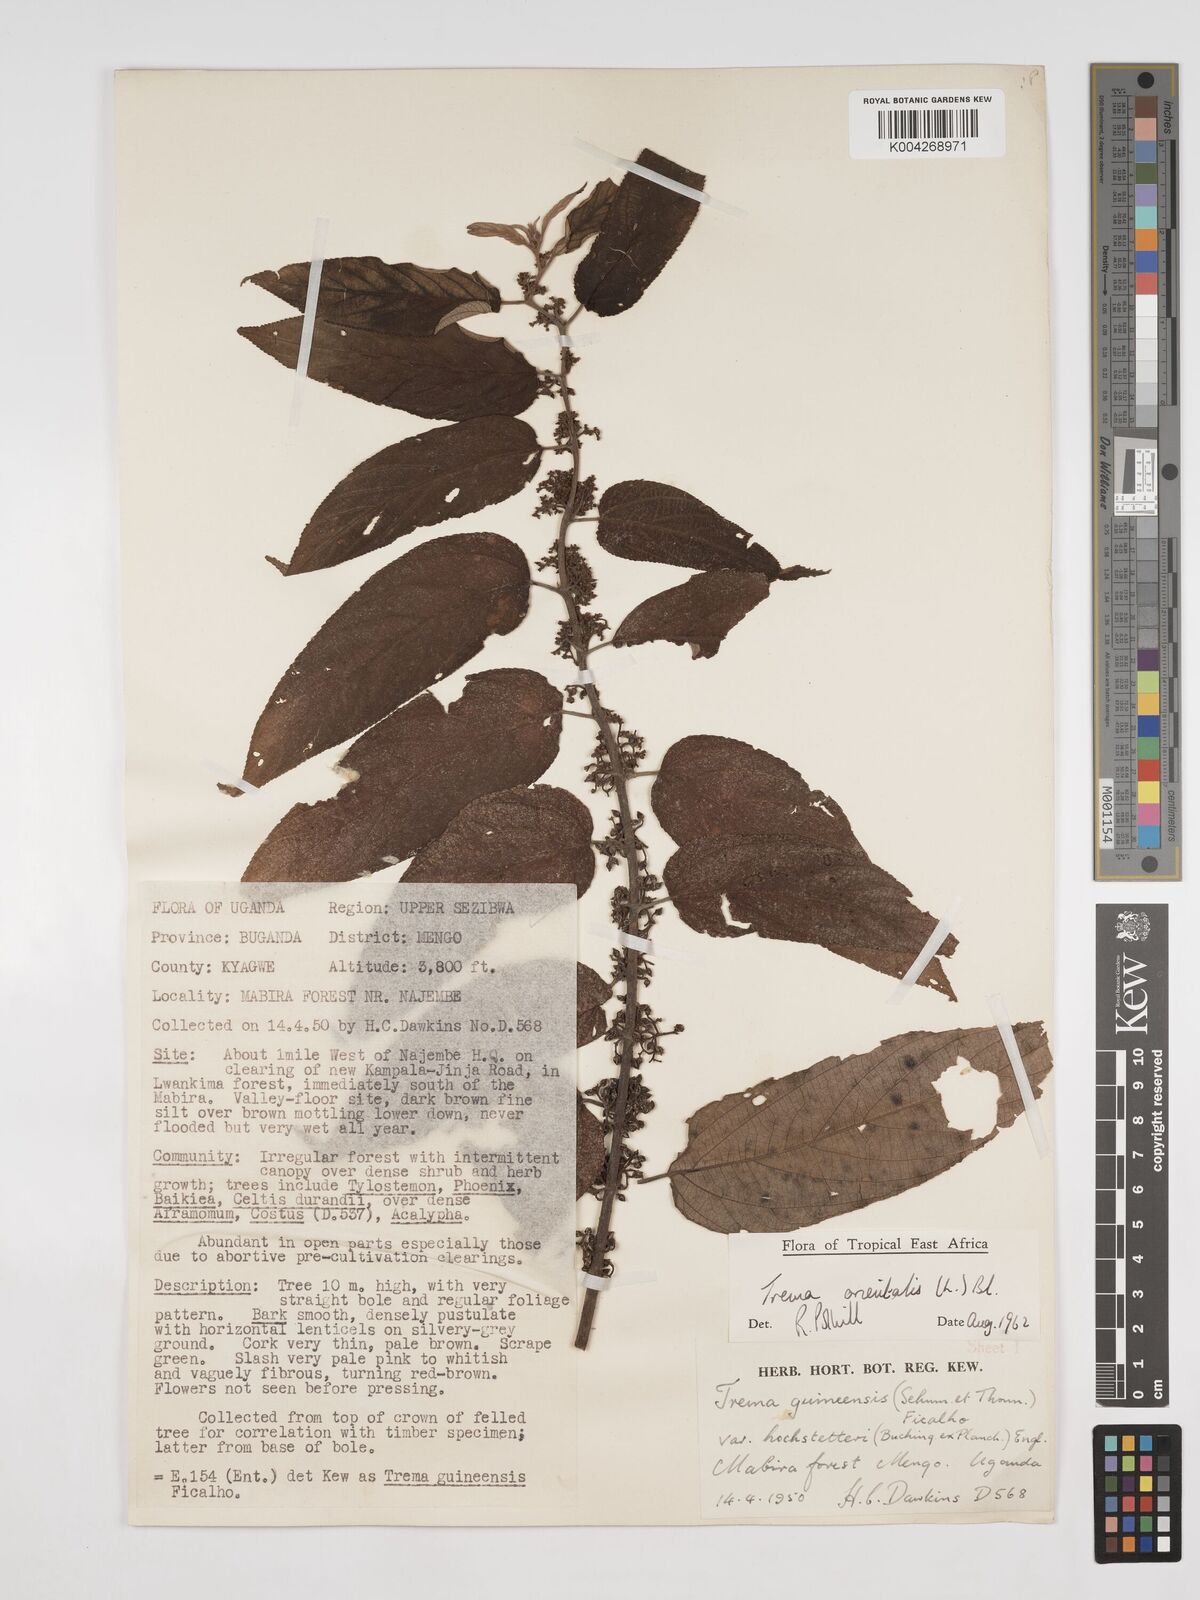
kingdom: Plantae
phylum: Tracheophyta
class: Magnoliopsida
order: Rosales
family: Cannabaceae
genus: Trema
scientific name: Trema orientale
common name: Indian charcoal tree
